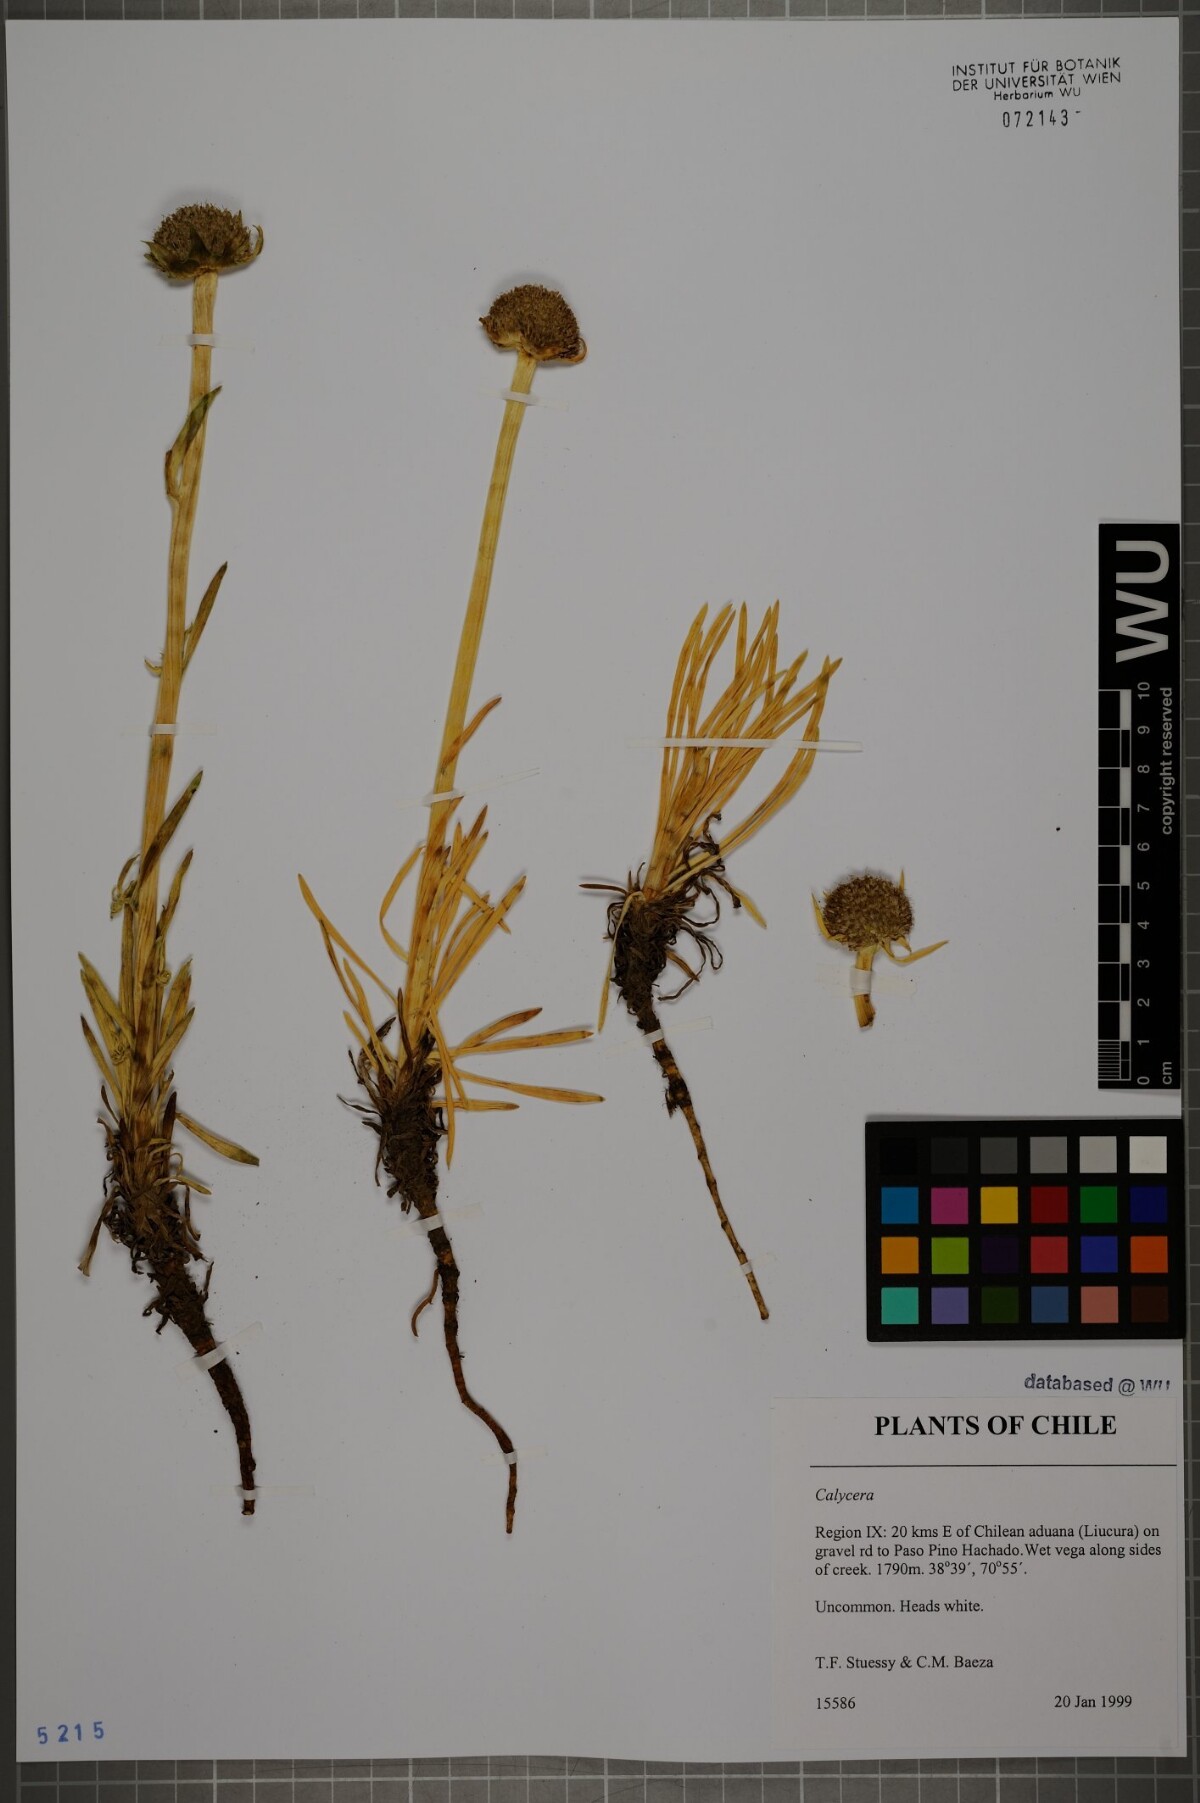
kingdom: Plantae
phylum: Tracheophyta
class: Magnoliopsida
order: Asterales
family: Calyceraceae
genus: Calycera
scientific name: Calycera
